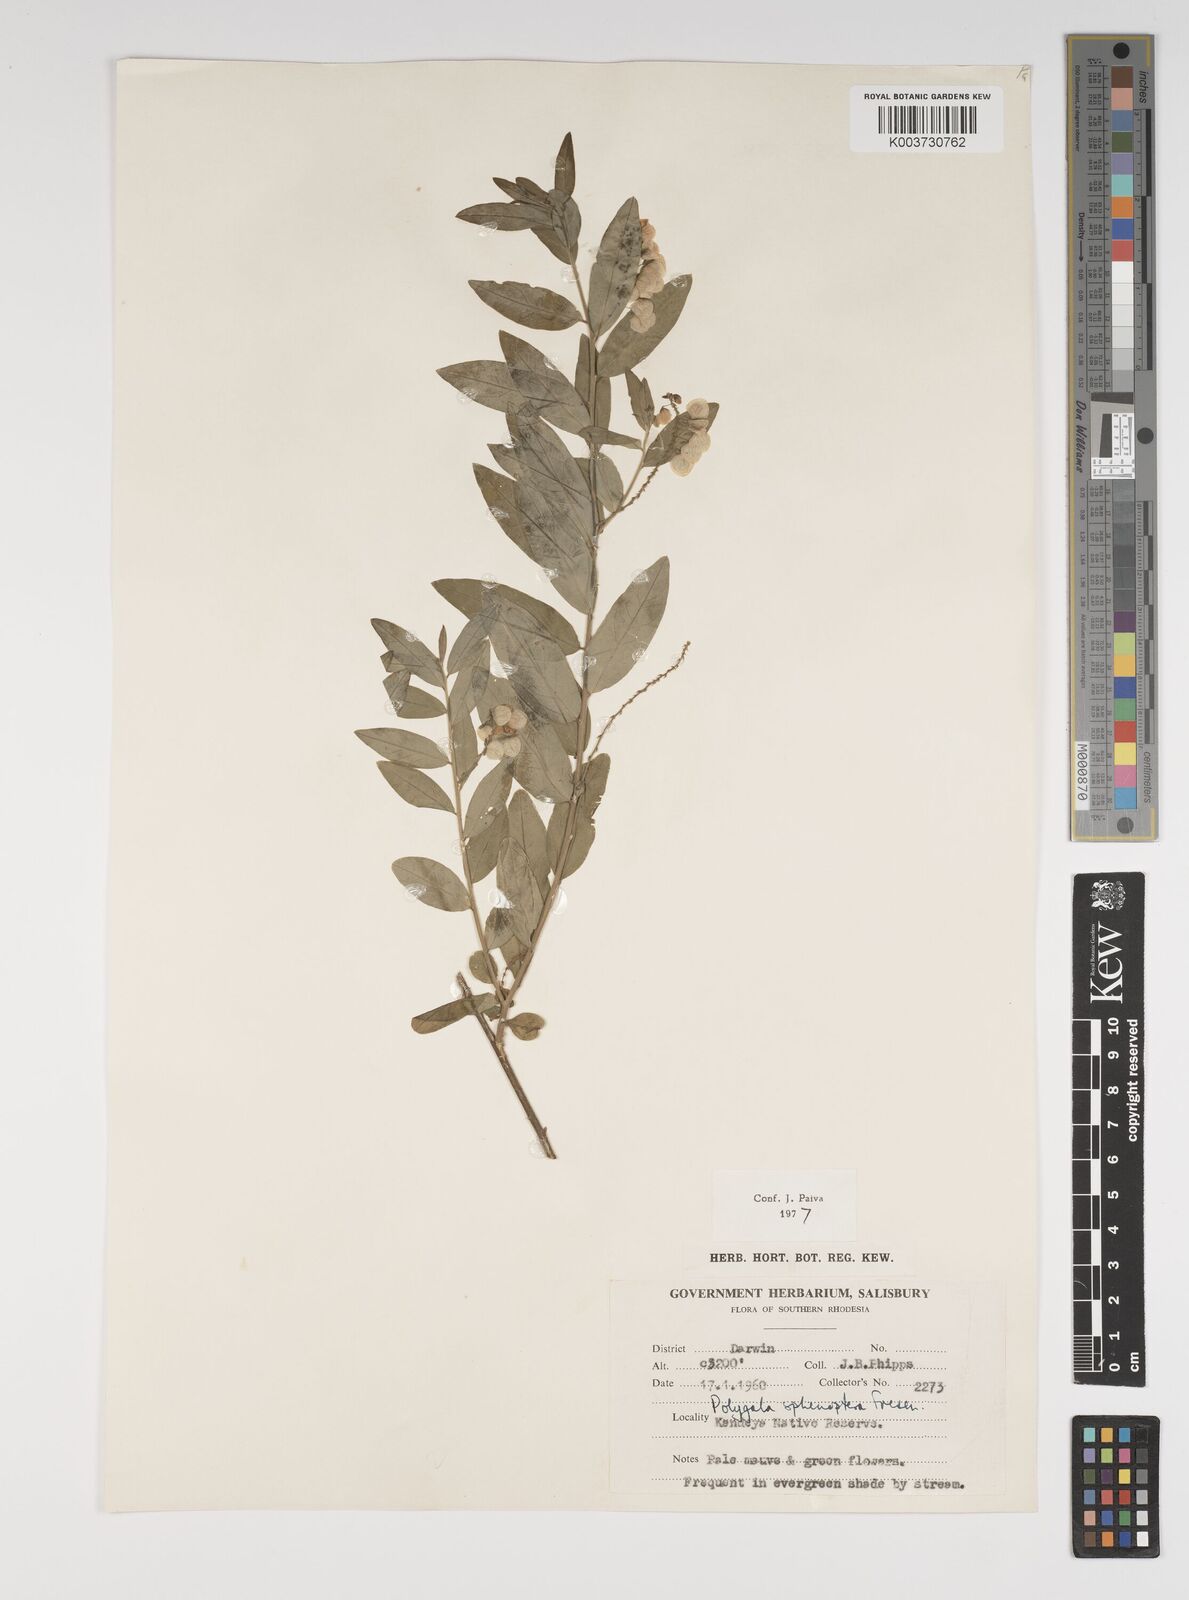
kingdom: Plantae
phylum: Tracheophyta
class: Magnoliopsida
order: Fabales
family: Polygalaceae
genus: Polygala
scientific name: Polygala sphenoptera
